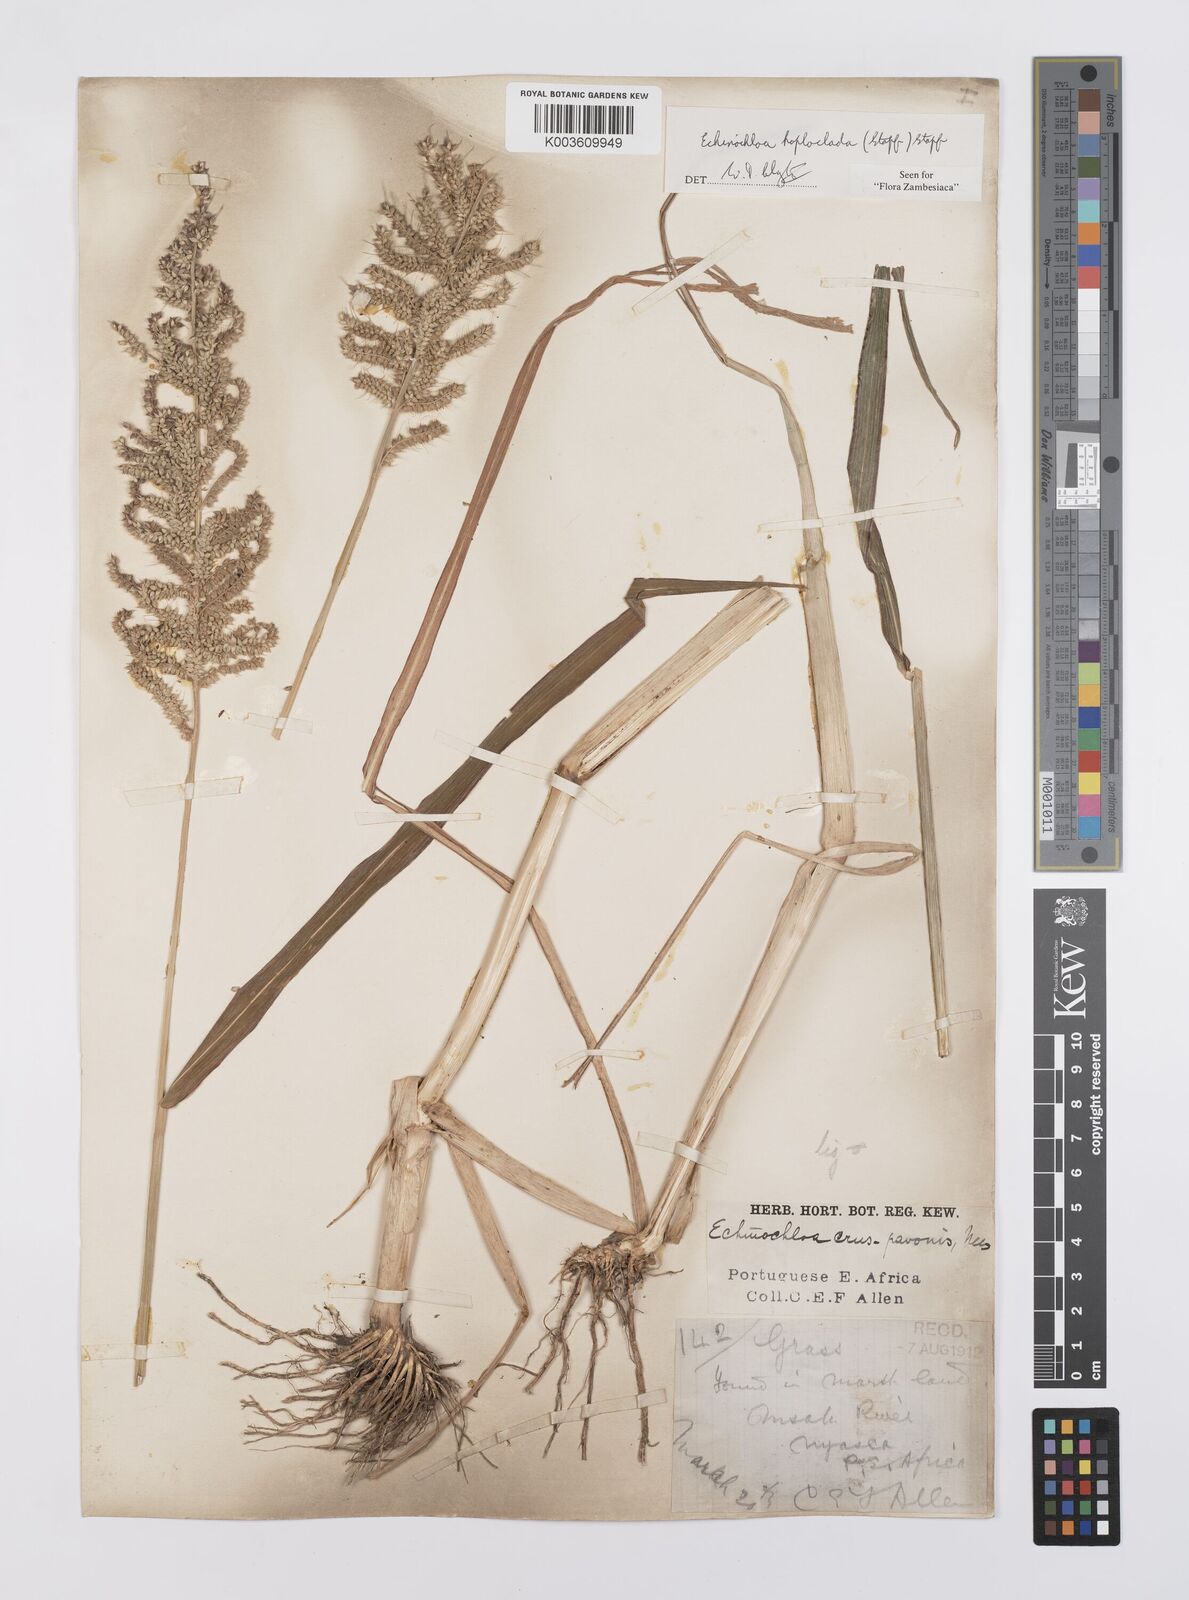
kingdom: Plantae
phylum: Tracheophyta
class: Liliopsida
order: Poales
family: Poaceae
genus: Echinochloa
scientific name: Echinochloa haploclada
